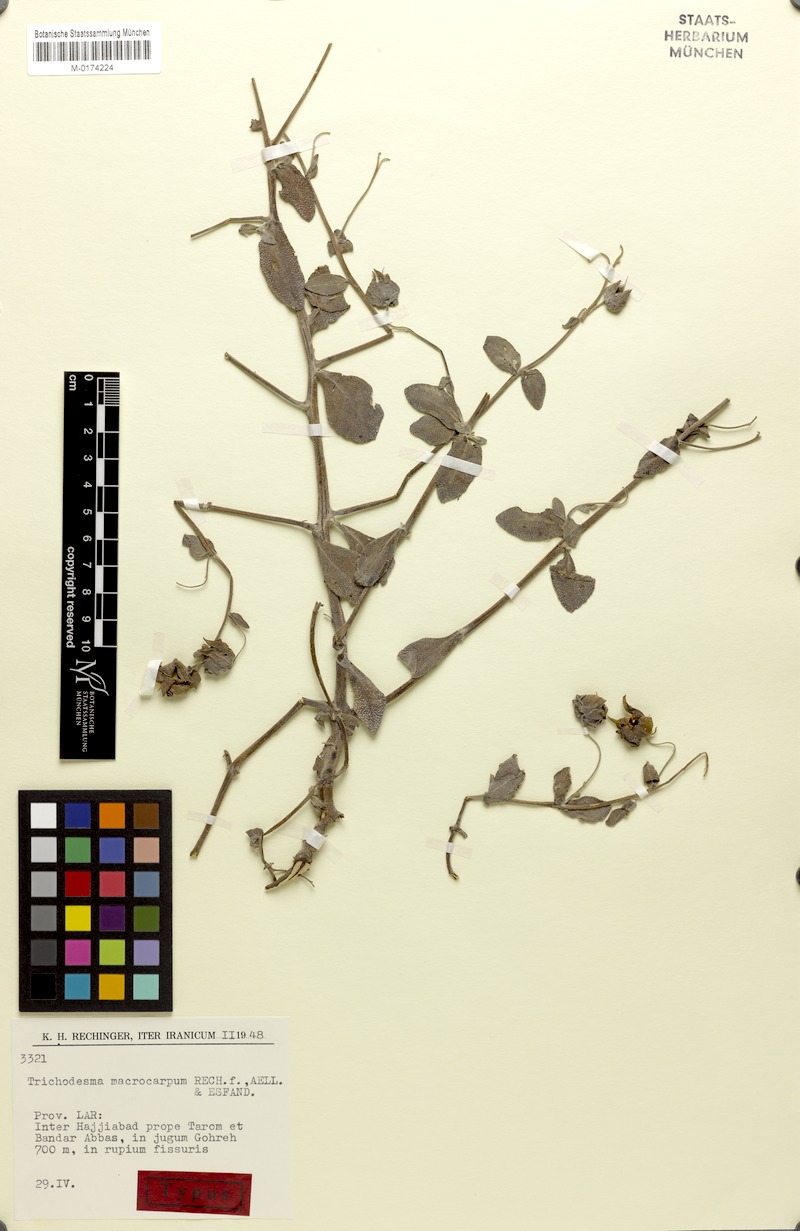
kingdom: Plantae
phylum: Tracheophyta
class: Magnoliopsida
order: Boraginales
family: Boraginaceae
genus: Trichodesma
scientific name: Trichodesma macrocarpum
